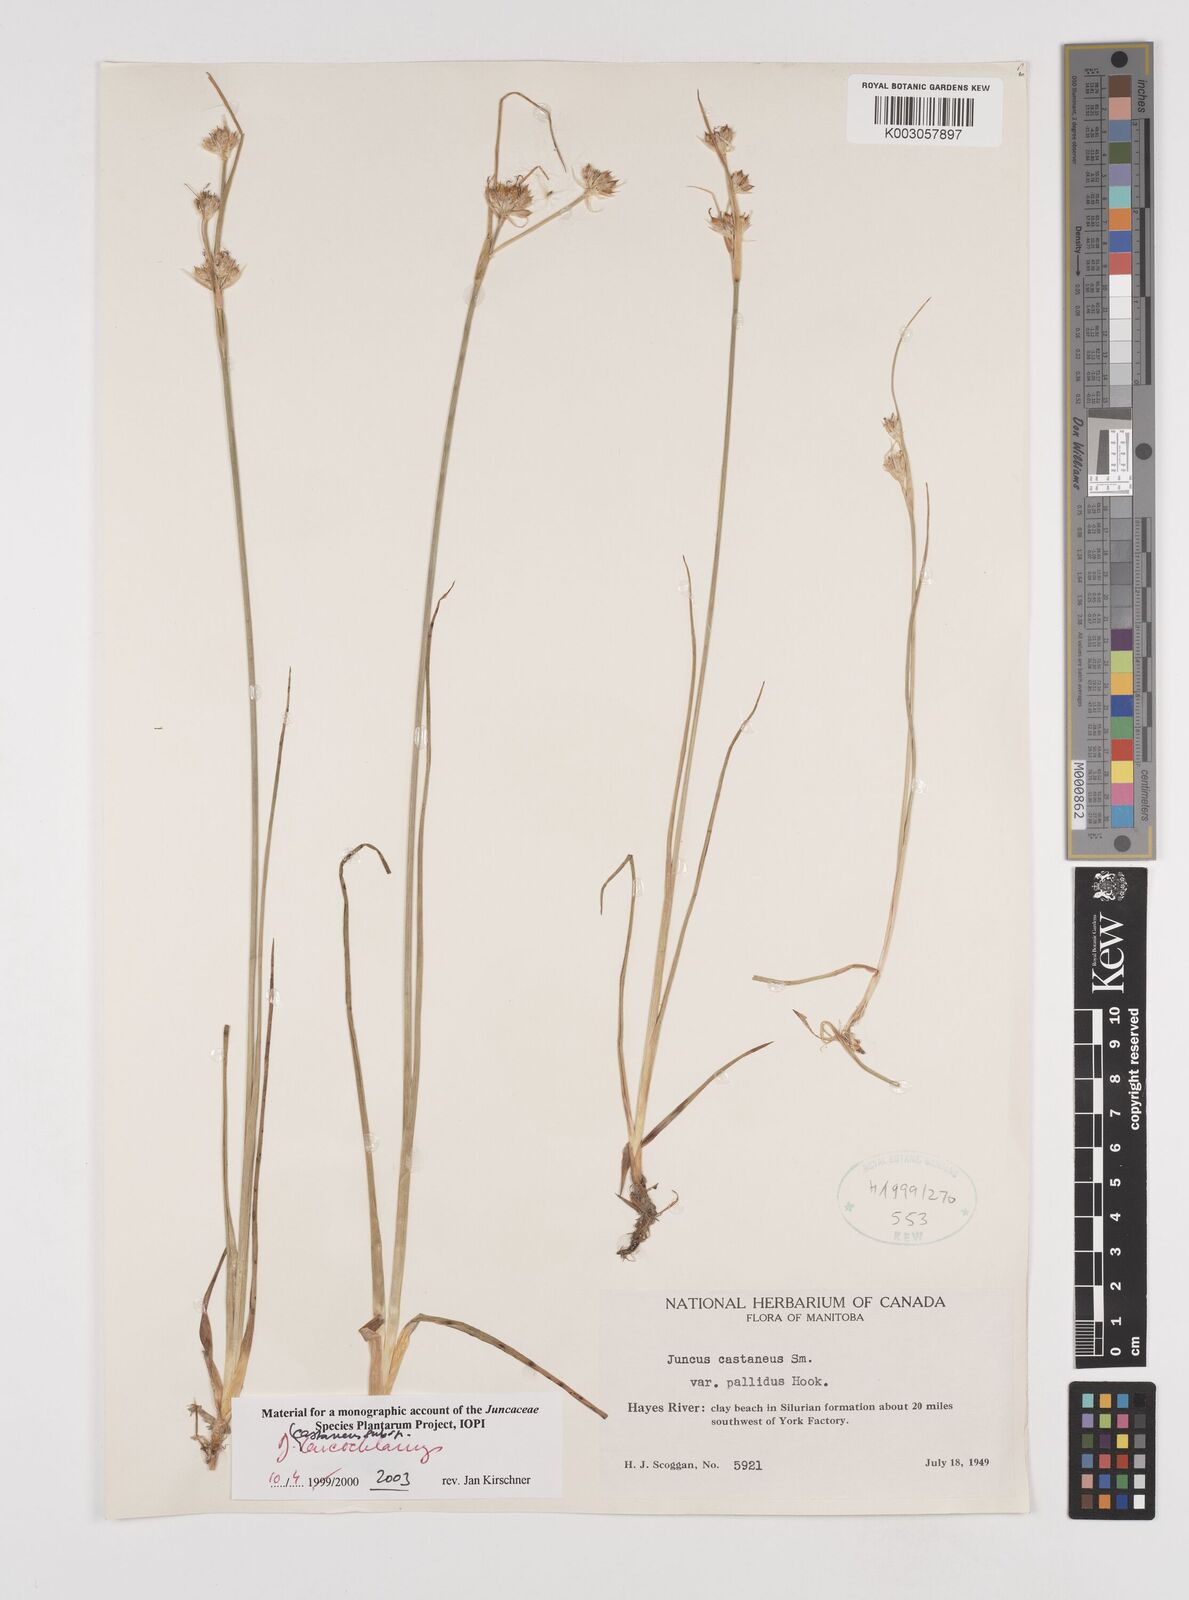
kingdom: Plantae
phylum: Tracheophyta
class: Liliopsida
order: Poales
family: Juncaceae
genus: Juncus
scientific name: Juncus castaneus
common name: Chestnut rush
